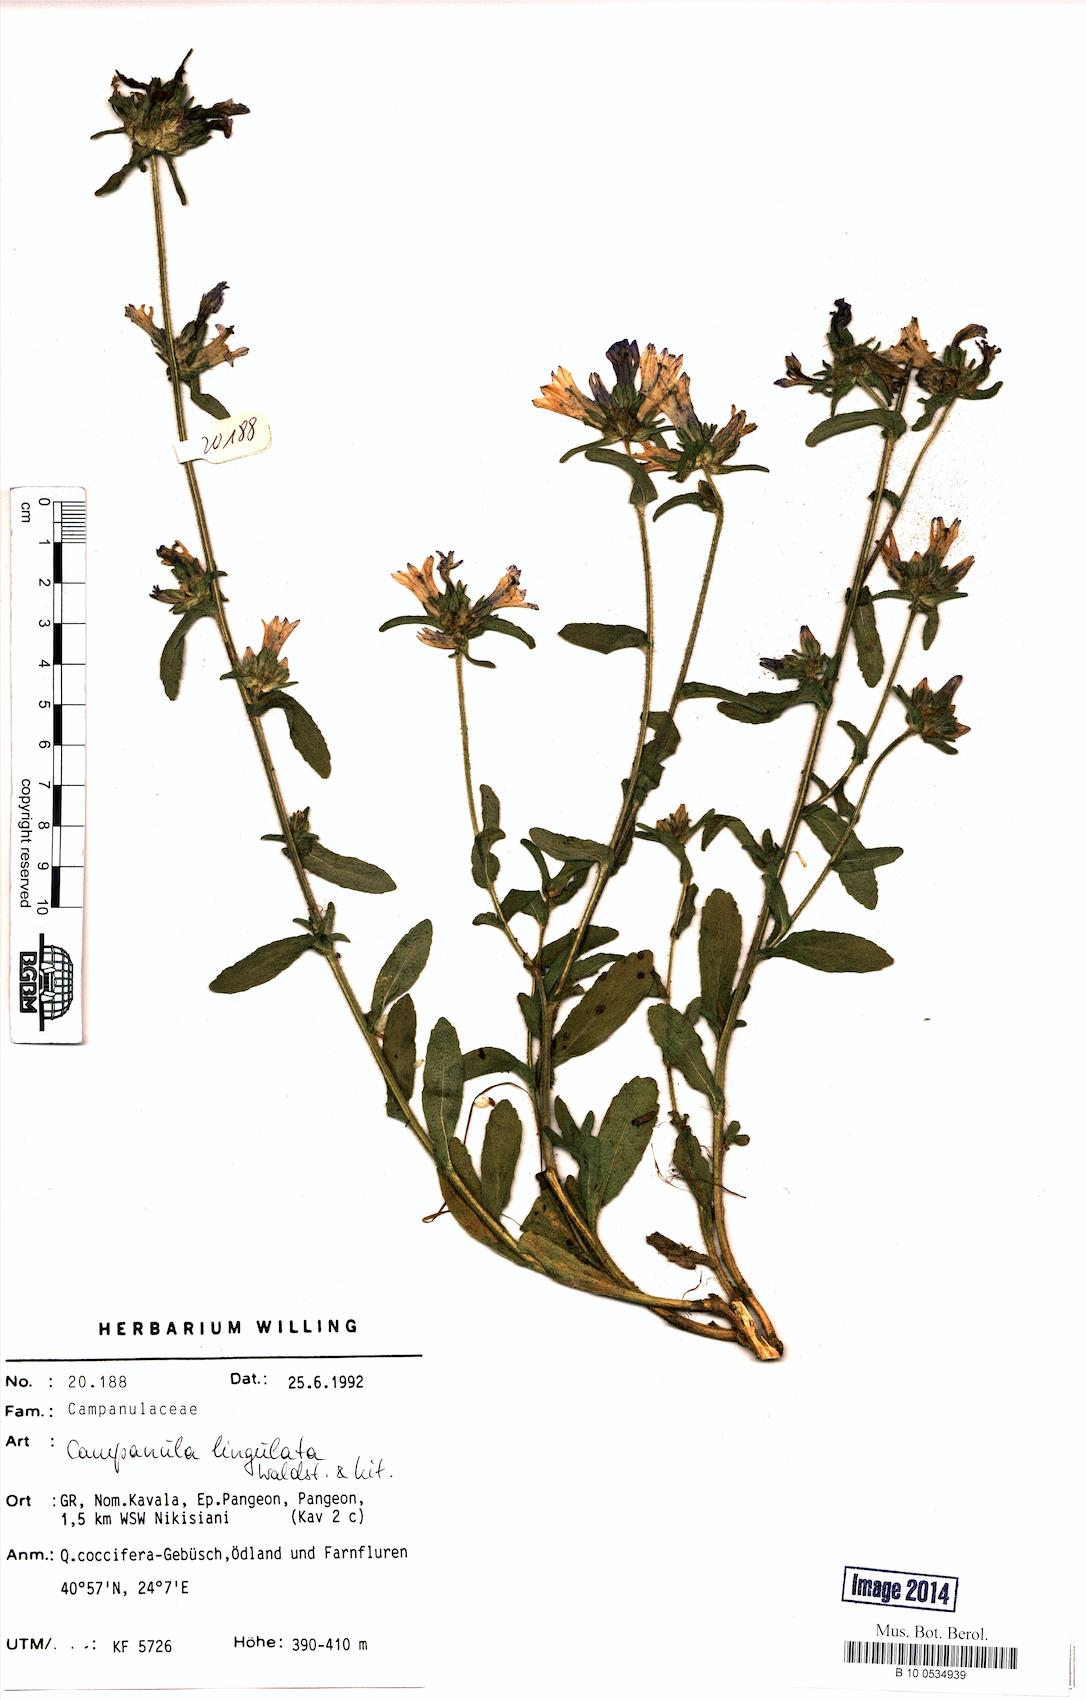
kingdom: Plantae
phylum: Tracheophyta
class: Magnoliopsida
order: Asterales
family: Campanulaceae
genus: Campanula
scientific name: Campanula lingulata
